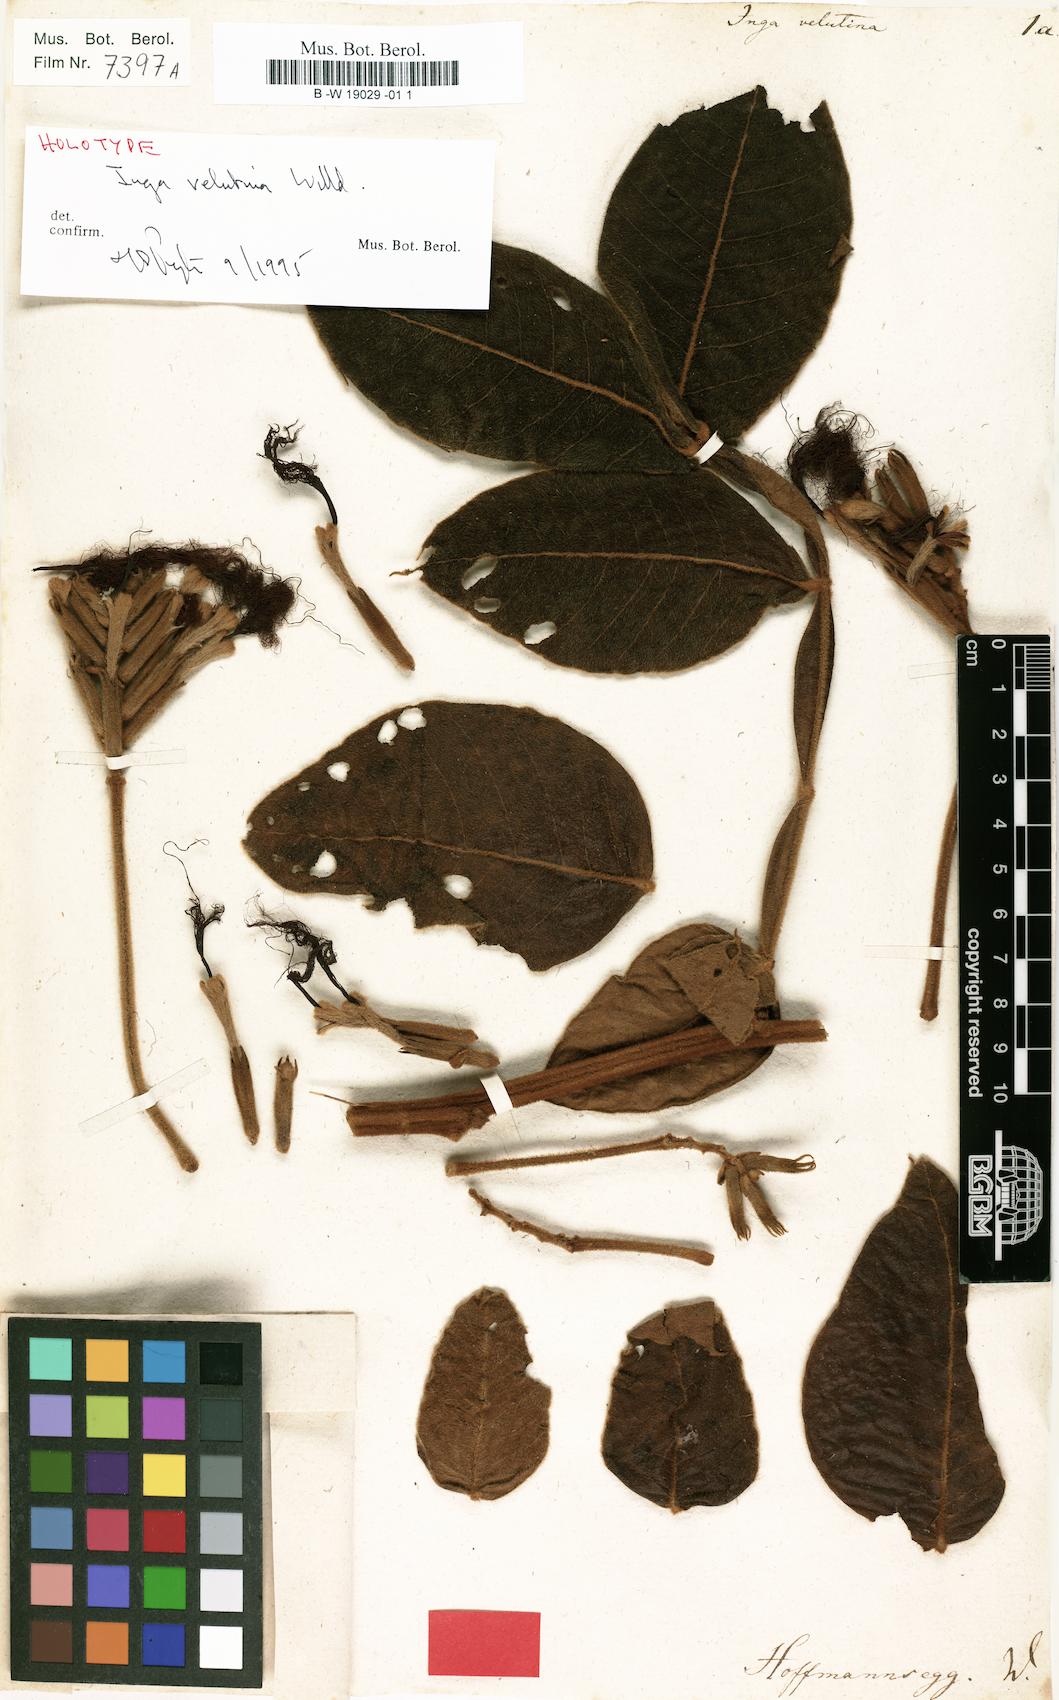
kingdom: Plantae
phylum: Tracheophyta
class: Magnoliopsida
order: Fabales
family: Fabaceae
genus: Inga
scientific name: Inga velutina
